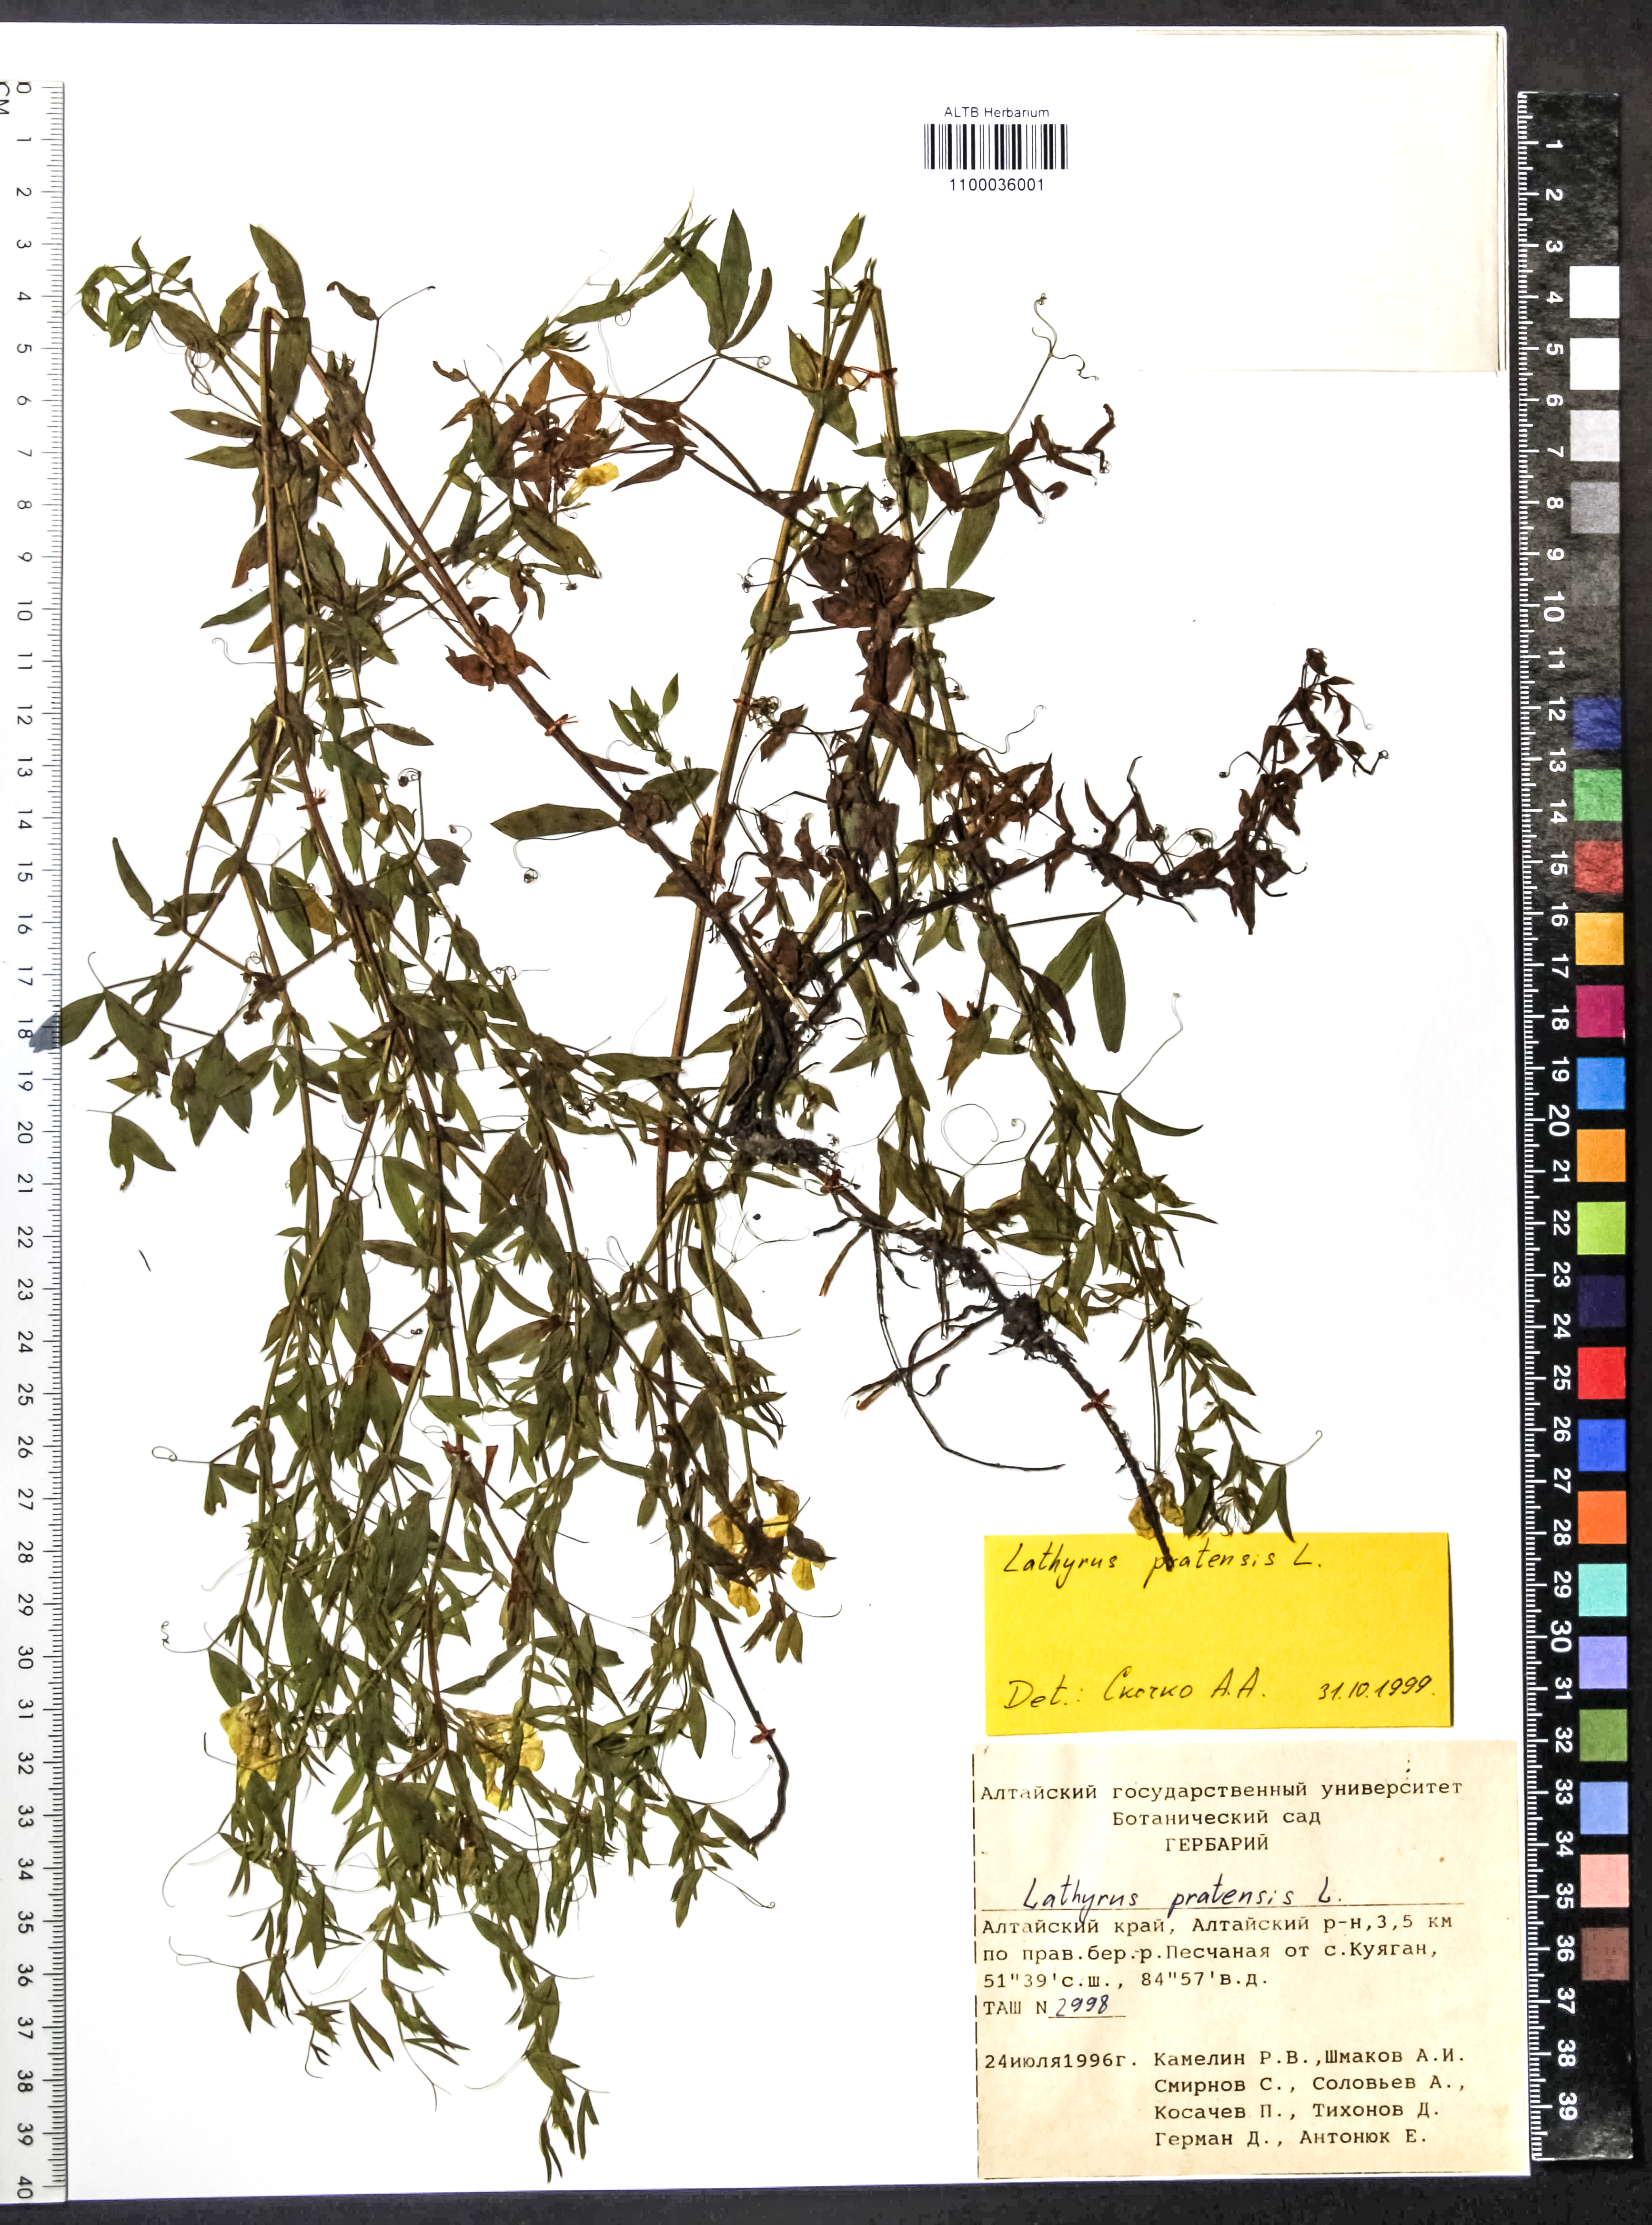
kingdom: Plantae
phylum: Tracheophyta
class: Magnoliopsida
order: Fabales
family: Fabaceae
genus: Lathyrus
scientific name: Lathyrus pratensis
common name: Meadow vetchling
